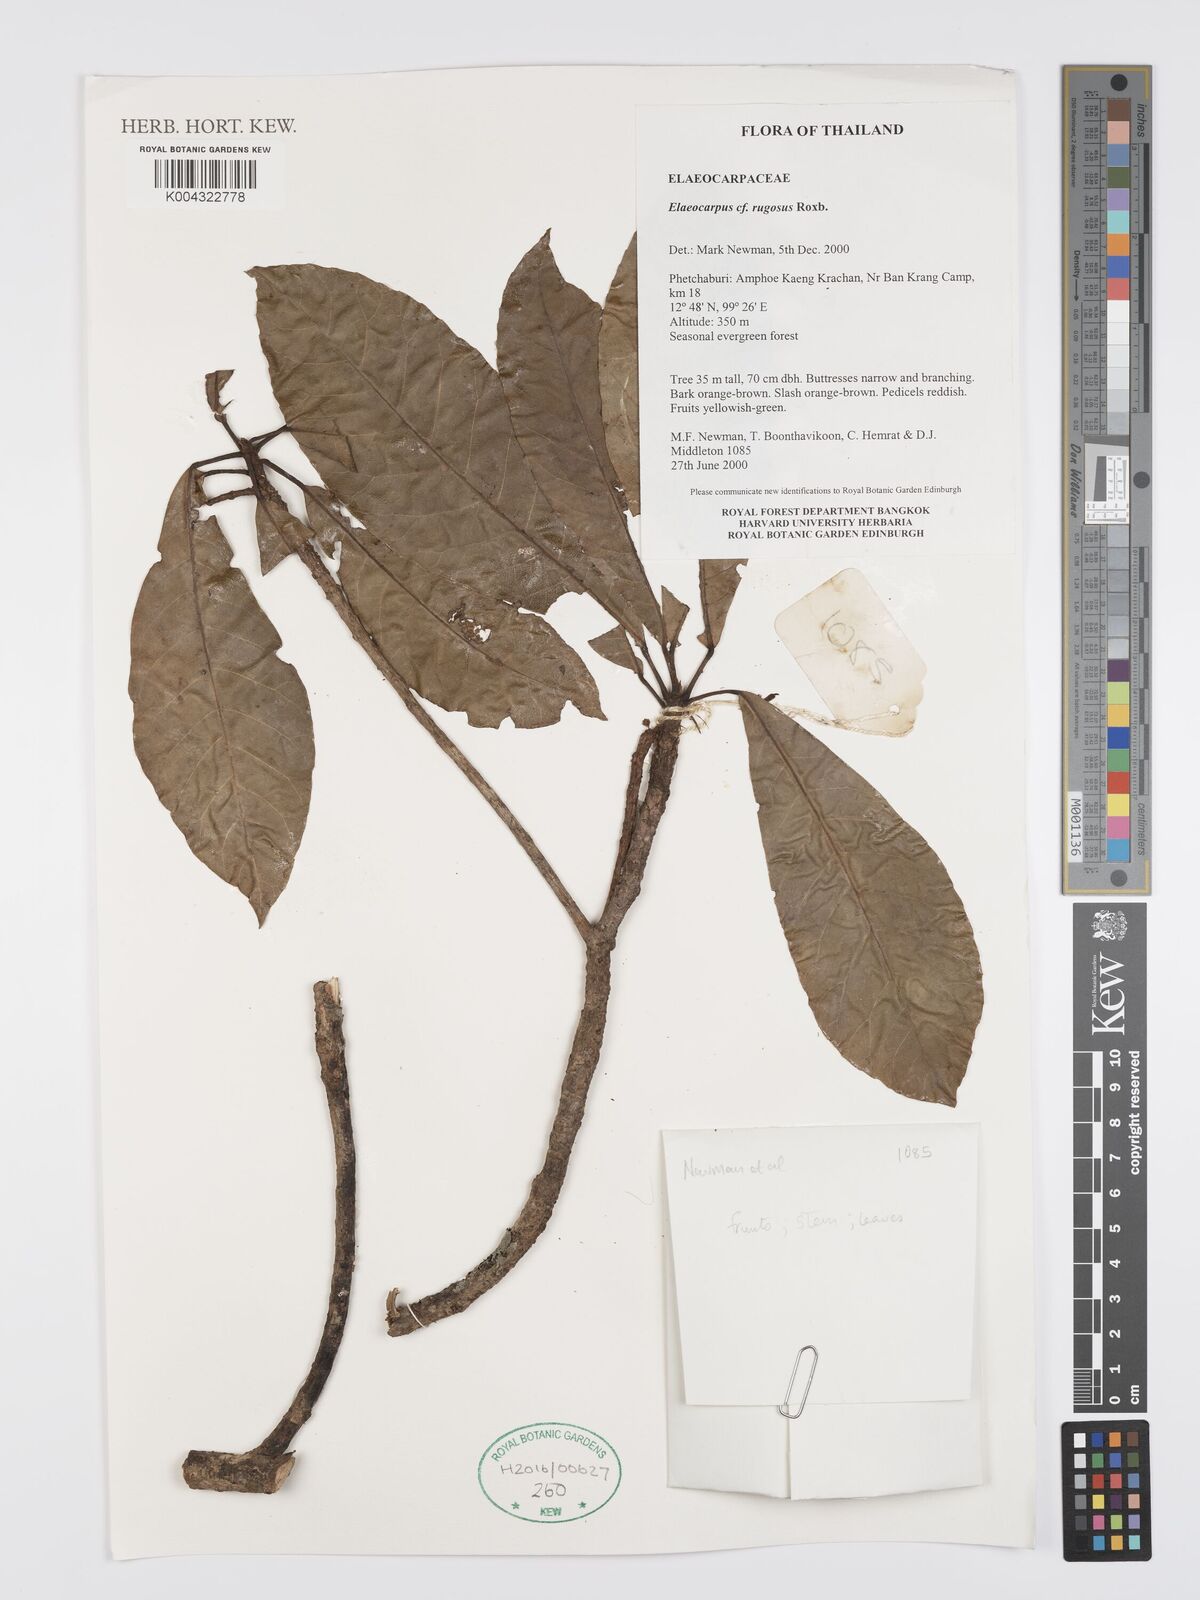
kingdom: Plantae
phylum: Tracheophyta
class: Magnoliopsida
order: Oxalidales
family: Elaeocarpaceae
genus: Elaeocarpus
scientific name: Elaeocarpus rugosus
